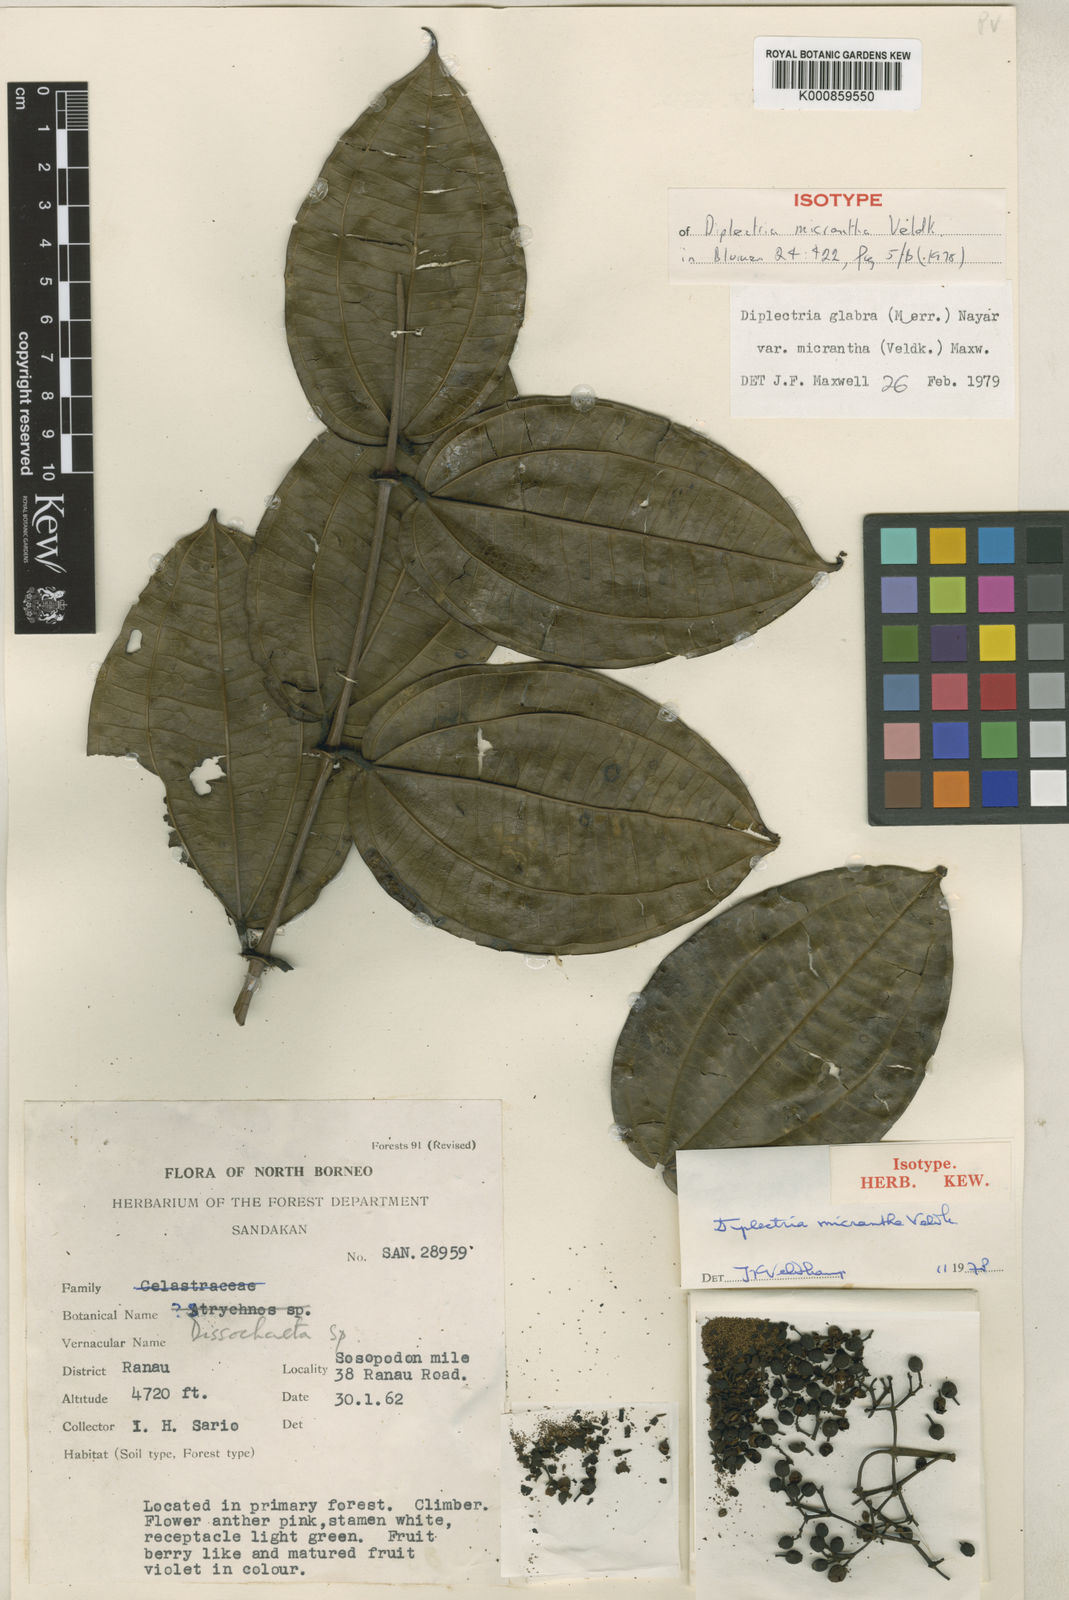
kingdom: Plantae
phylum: Tracheophyta
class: Magnoliopsida
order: Myrtales
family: Melastomataceae
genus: Diplectria
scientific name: Diplectria micrantha
